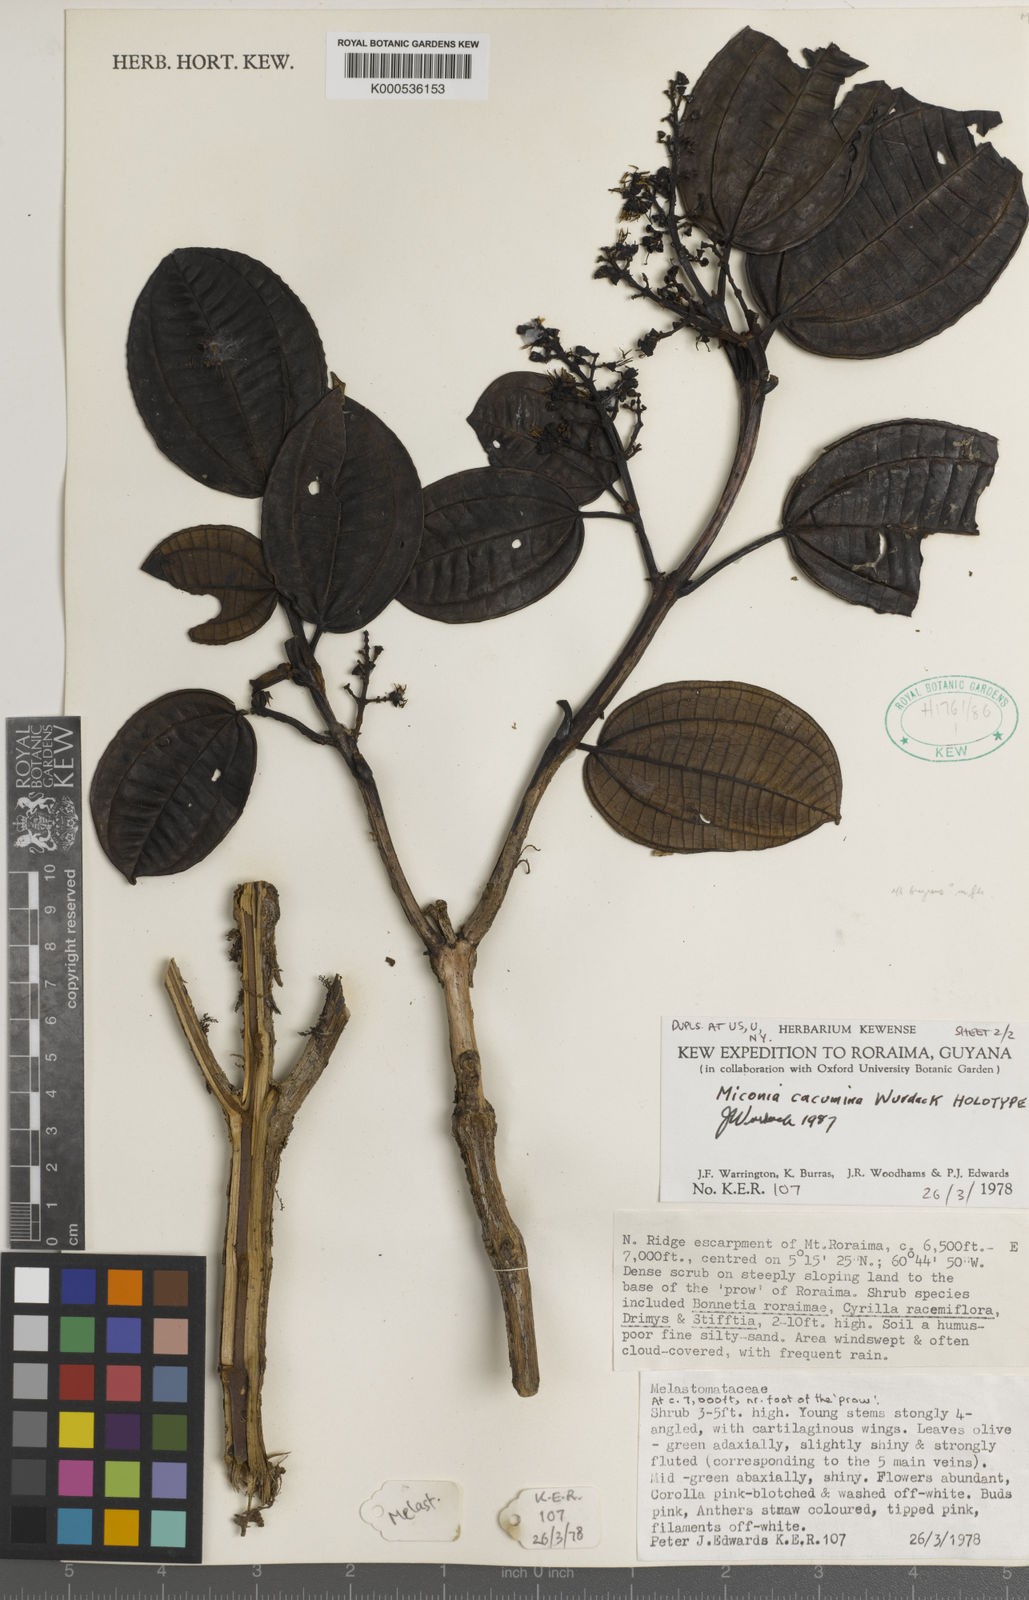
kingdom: Plantae
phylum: Tracheophyta
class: Magnoliopsida
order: Myrtales
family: Melastomataceae
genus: Miconia
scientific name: Miconia cacumina
